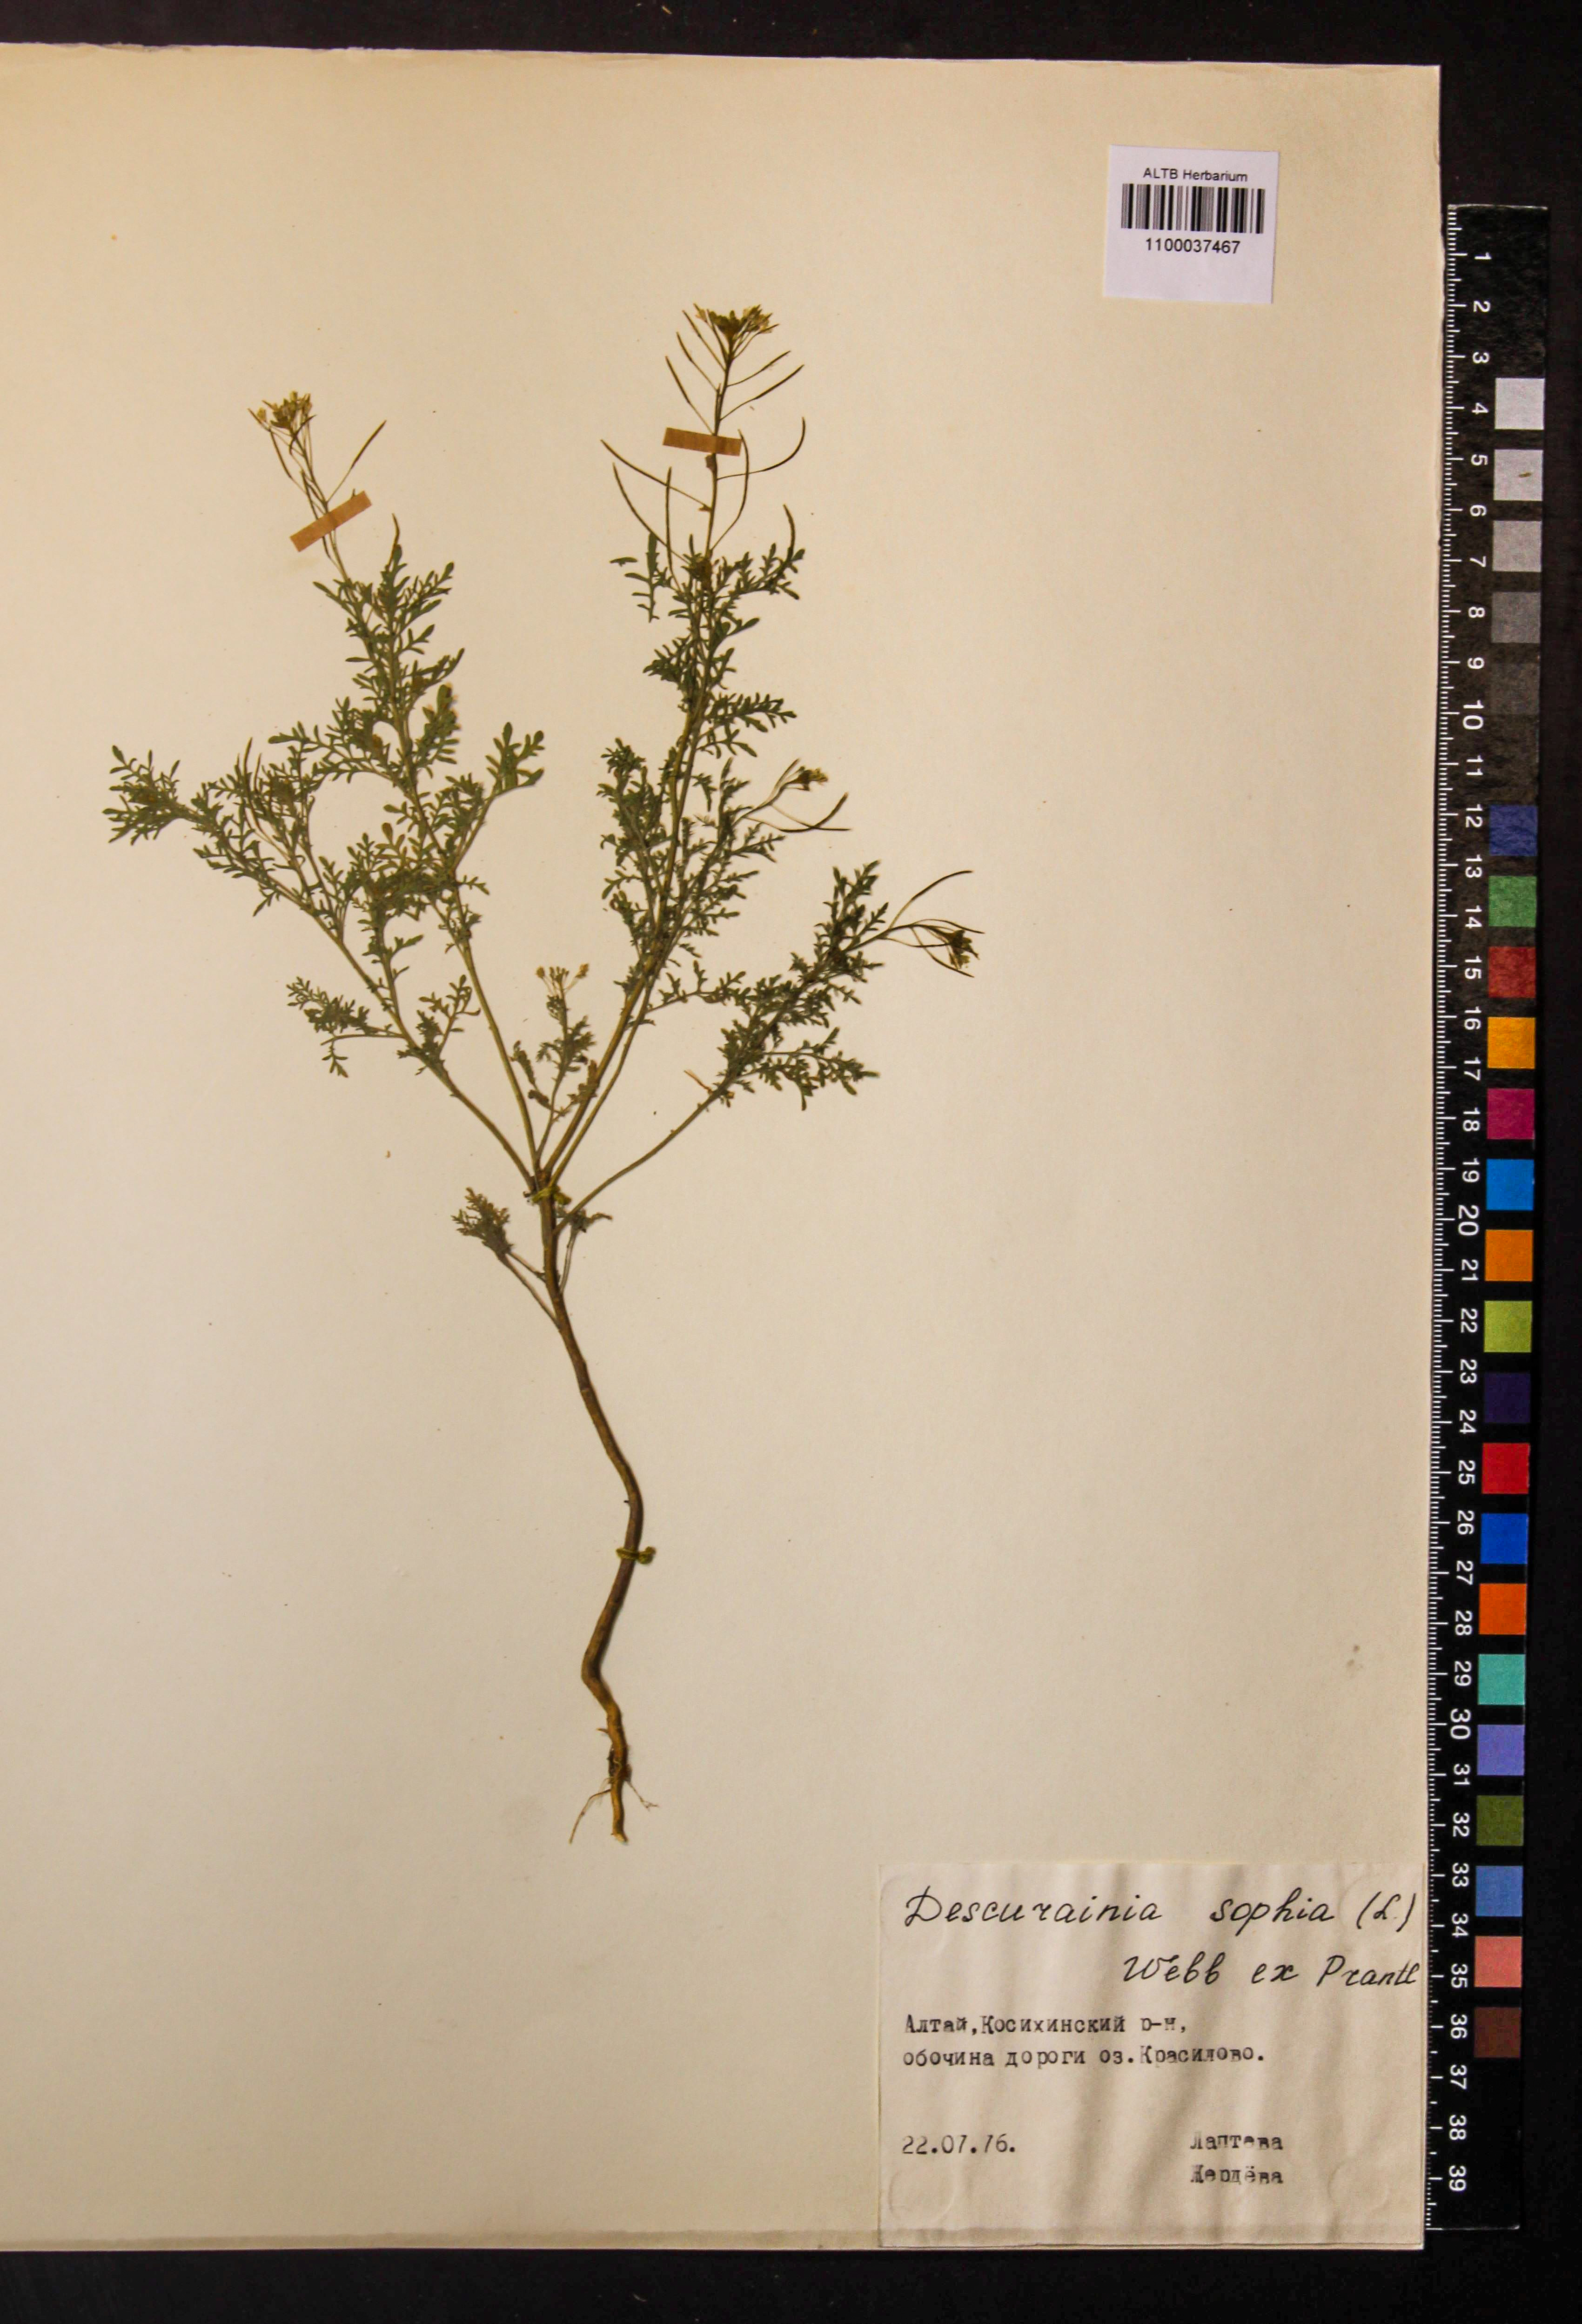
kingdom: Plantae
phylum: Tracheophyta
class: Magnoliopsida
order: Brassicales
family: Brassicaceae
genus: Descurainia
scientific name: Descurainia sophia
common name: Flixweed
